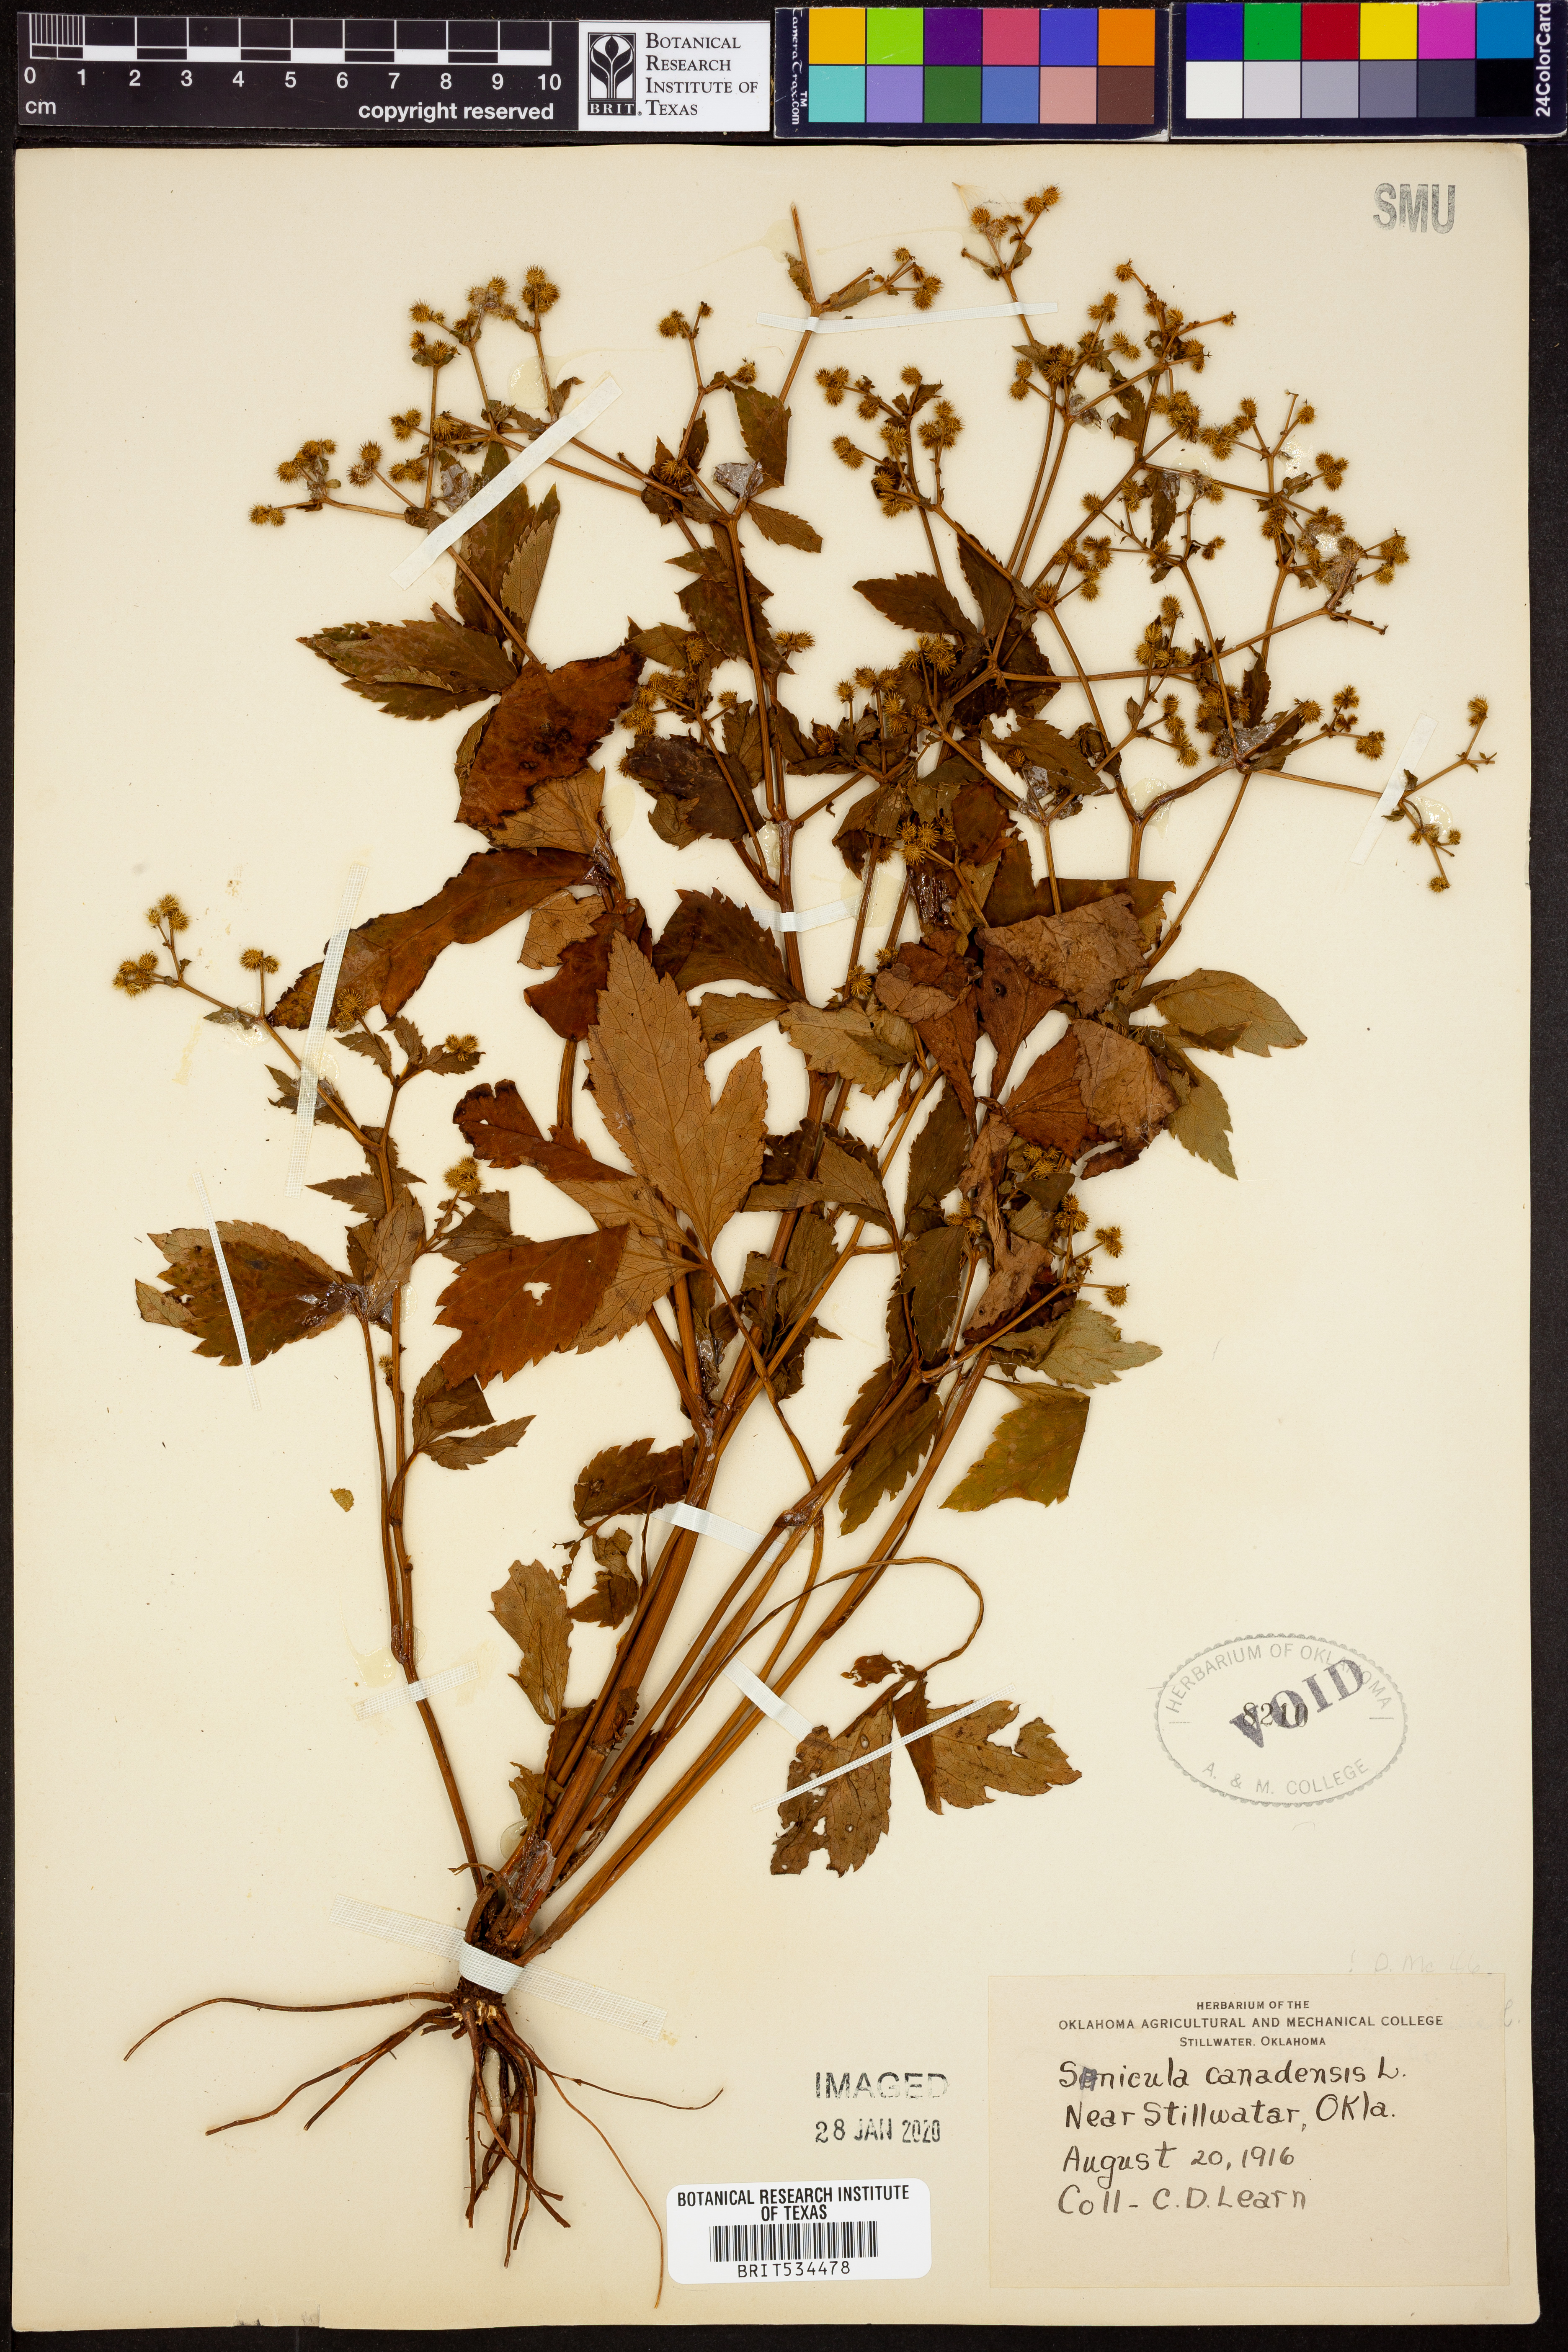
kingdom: Plantae
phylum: Tracheophyta
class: Magnoliopsida
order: Apiales
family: Apiaceae
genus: Sanicula
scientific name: Sanicula canadensis
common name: Canada sanicle
